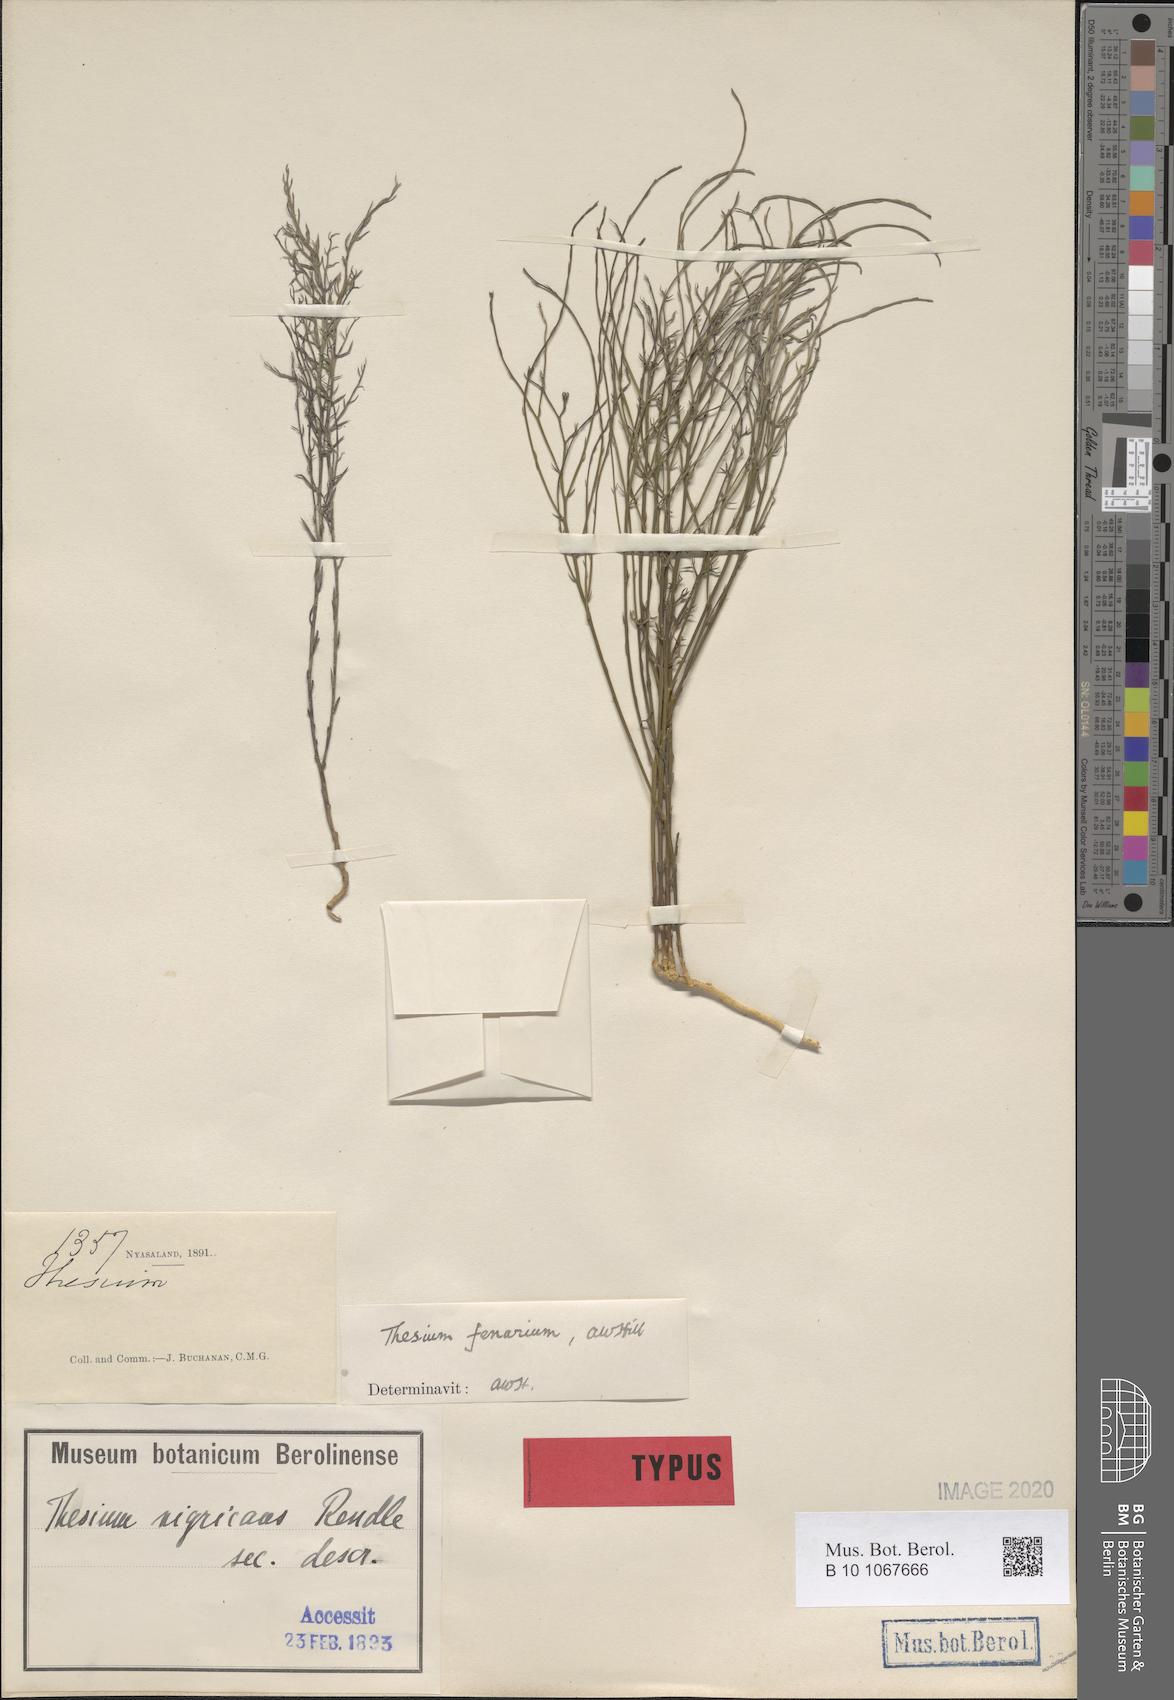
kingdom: Plantae
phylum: Tracheophyta
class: Magnoliopsida
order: Santalales
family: Thesiaceae
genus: Thesium
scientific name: Thesium cymosum
